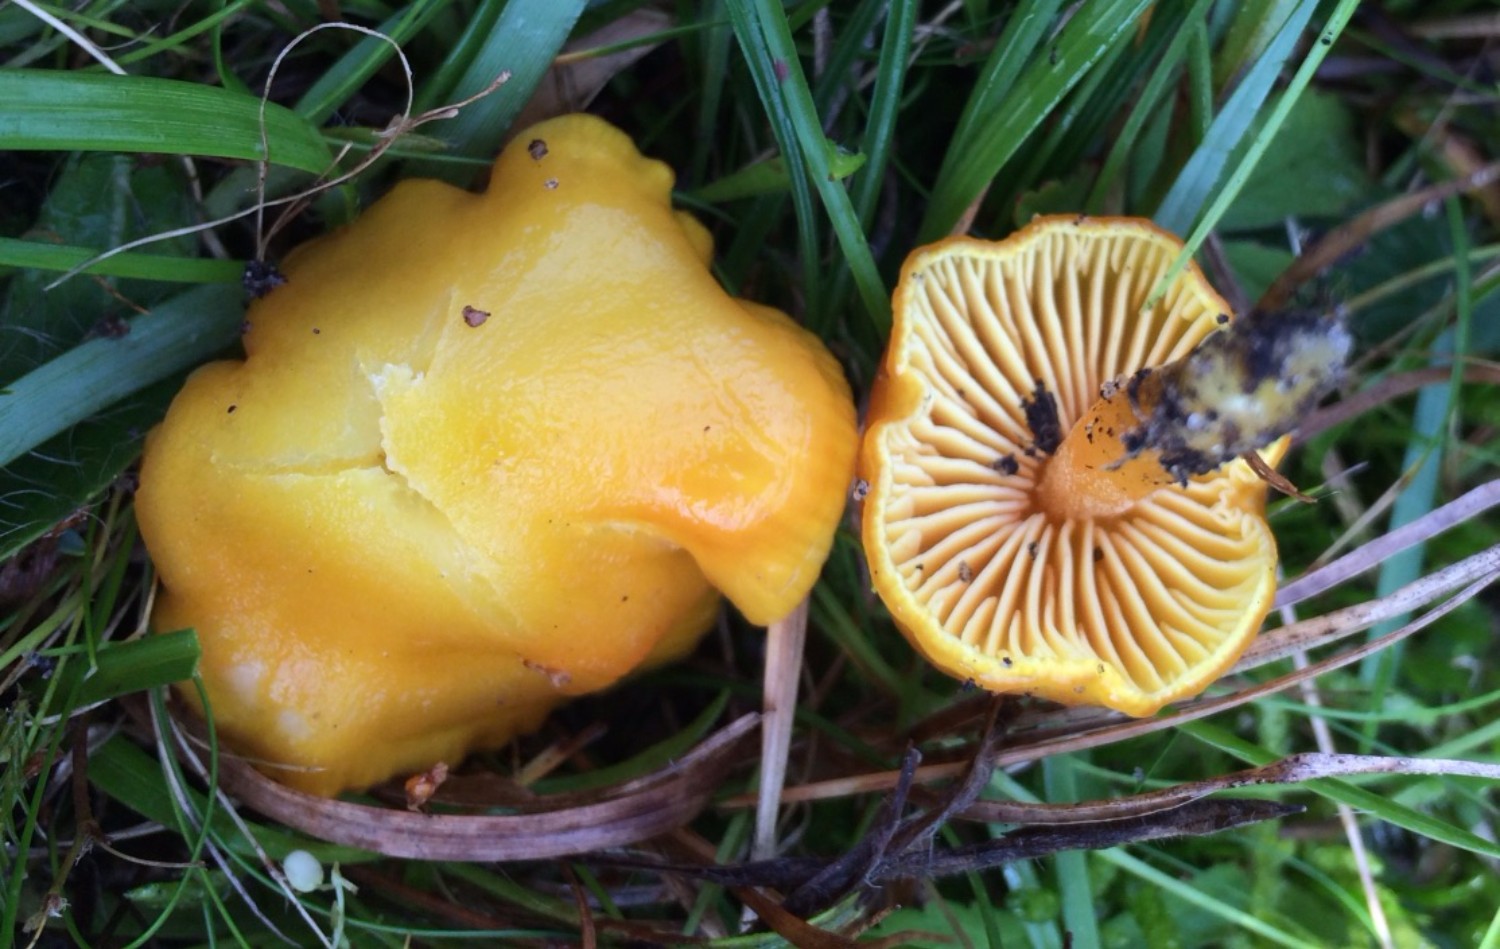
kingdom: Fungi
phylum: Basidiomycota
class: Agaricomycetes
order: Agaricales
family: Hygrophoraceae
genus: Hygrocybe
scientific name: Hygrocybe
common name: vokshat
